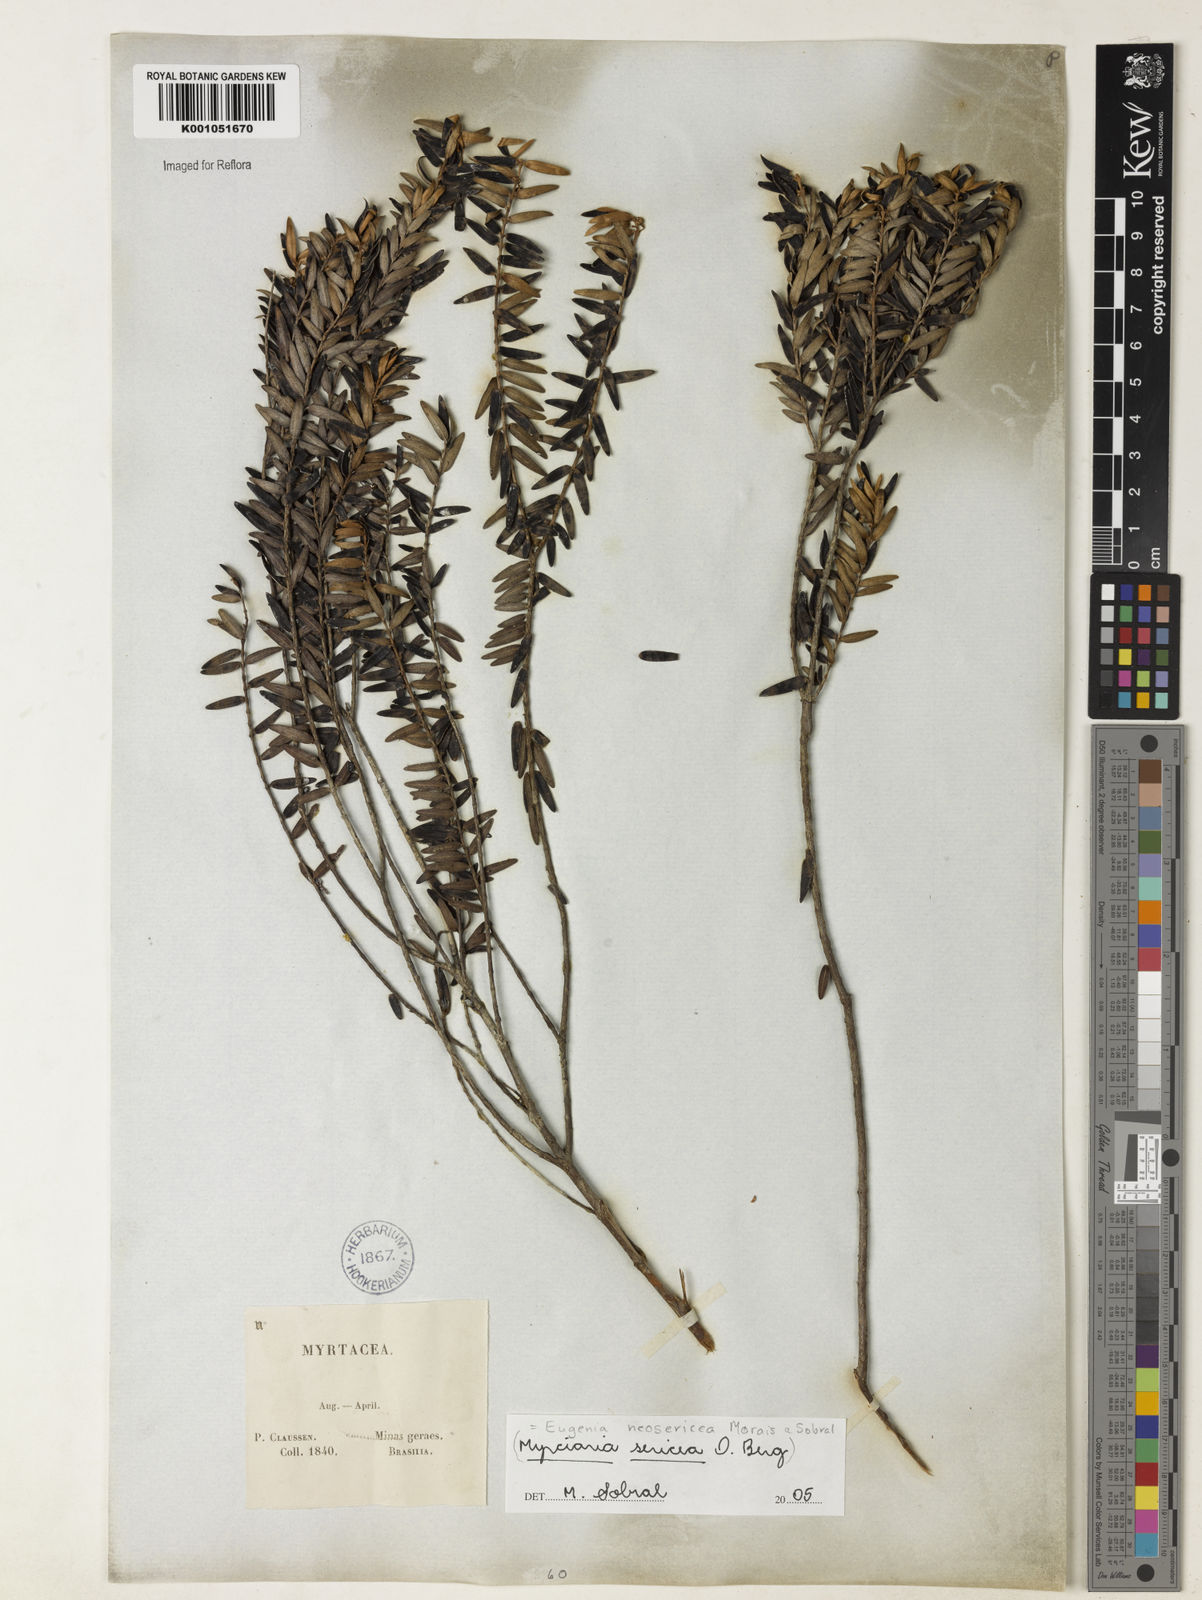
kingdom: Plantae
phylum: Tracheophyta
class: Magnoliopsida
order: Myrtales
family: Myrtaceae
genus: Myrcia
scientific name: Myrcia neosericea
